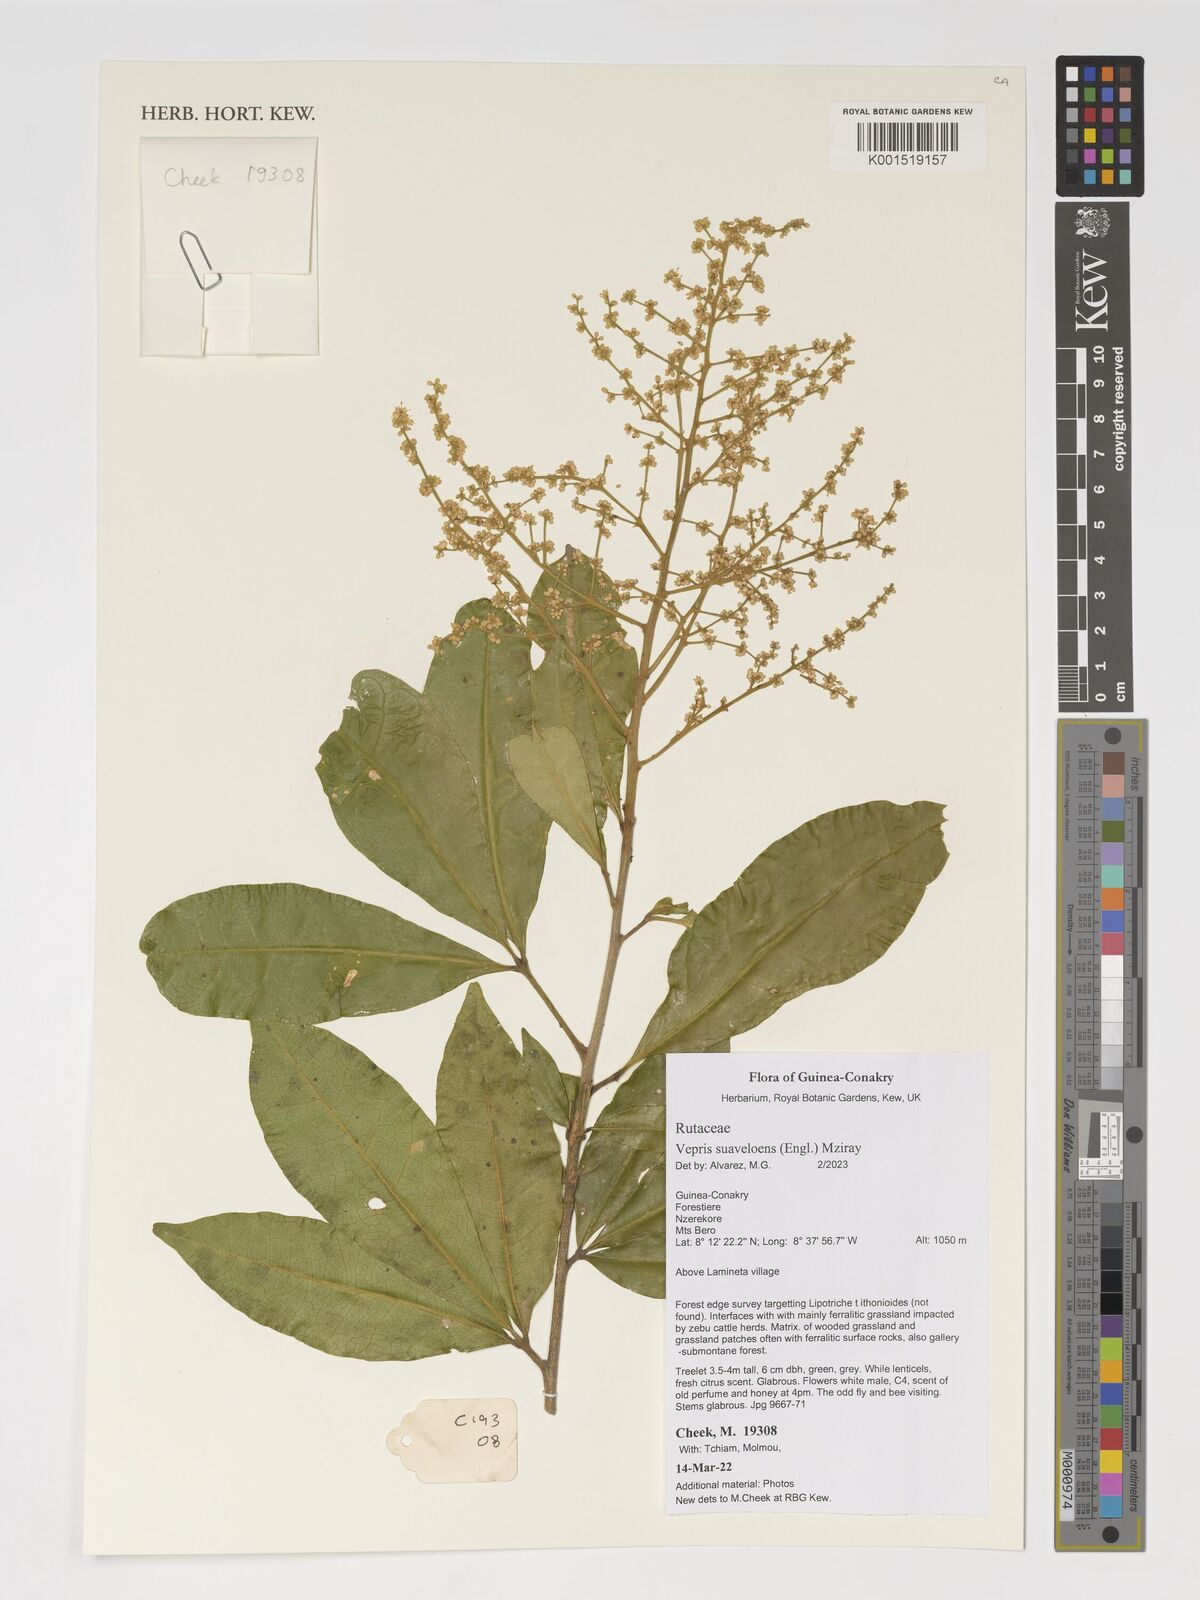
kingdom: Plantae
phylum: Tracheophyta
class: Magnoliopsida
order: Sapindales
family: Rutaceae
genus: Vepris
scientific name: Vepris suaveolens
